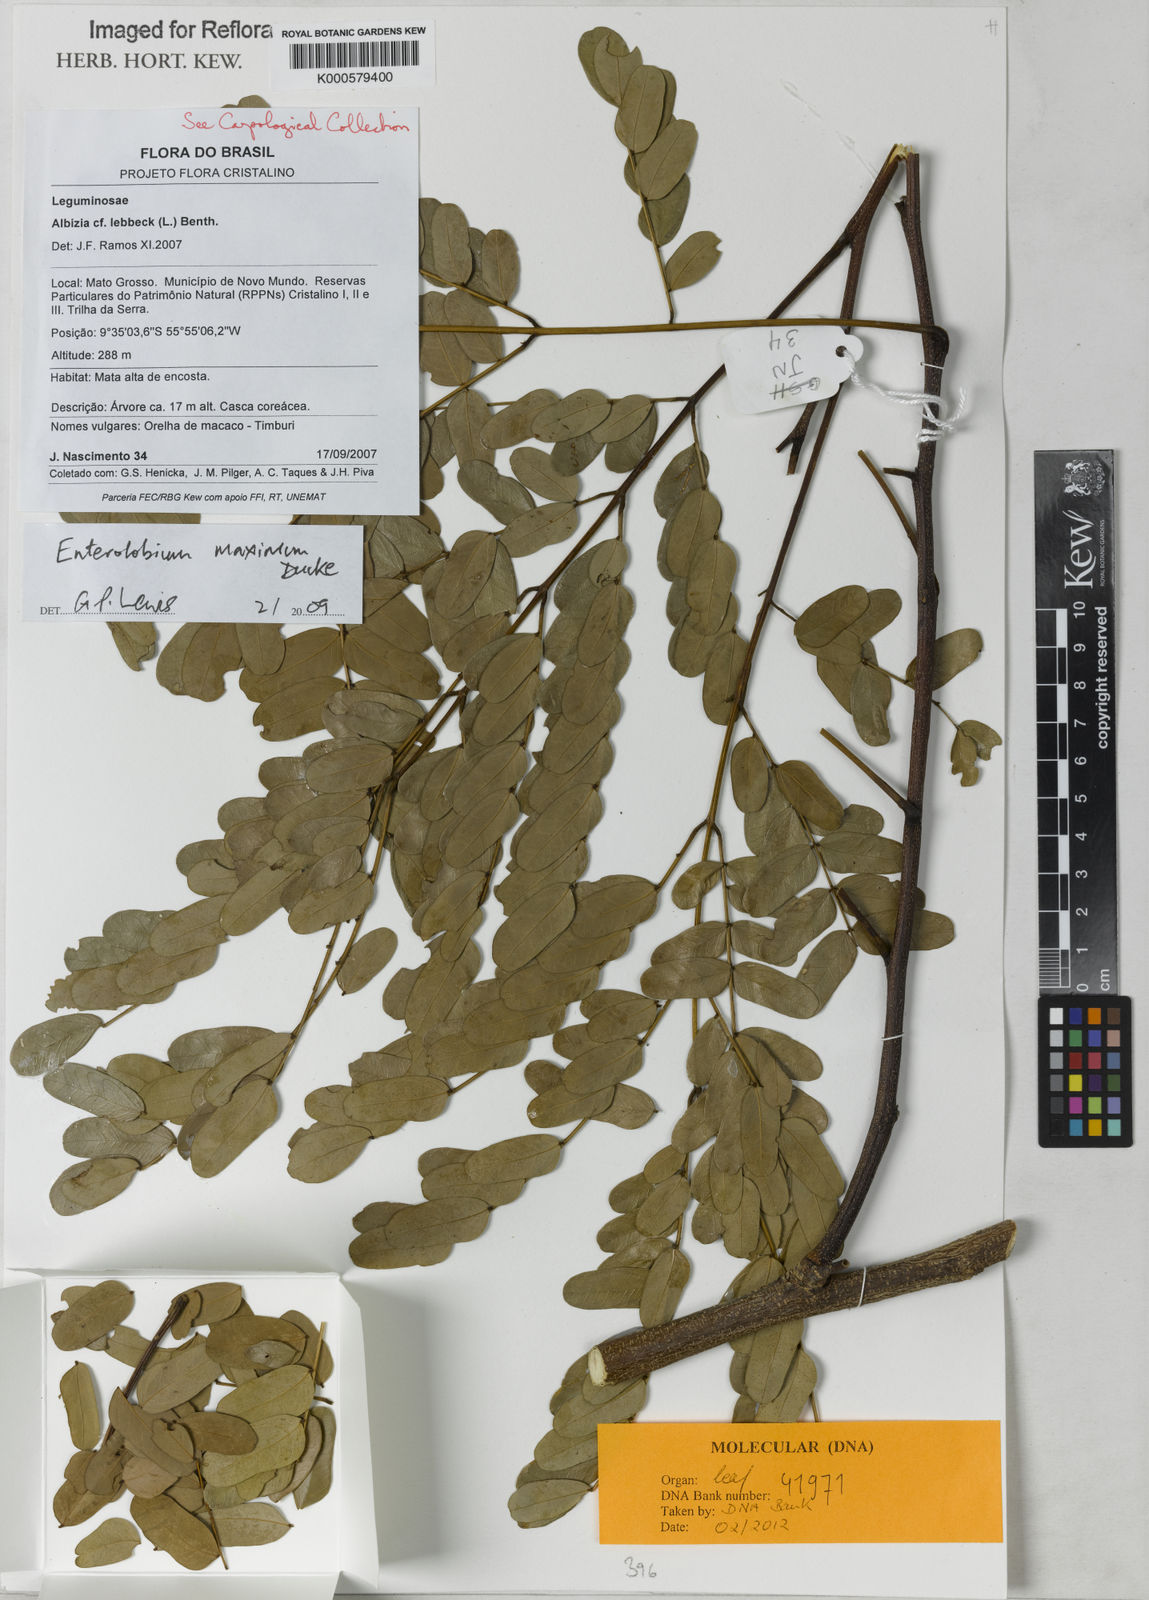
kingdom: Plantae
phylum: Tracheophyta
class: Magnoliopsida
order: Fabales
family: Fabaceae
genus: Enterolobium
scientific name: Enterolobium maximum
